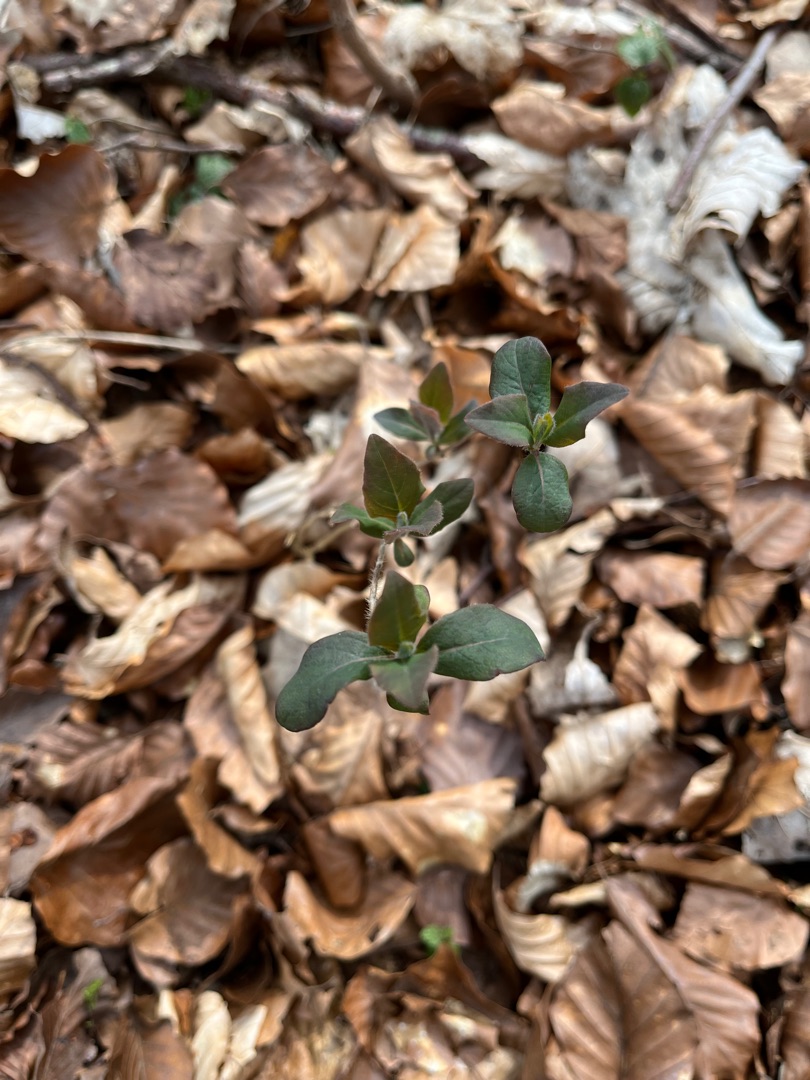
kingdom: Plantae
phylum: Tracheophyta
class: Magnoliopsida
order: Dipsacales
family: Caprifoliaceae
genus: Lonicera
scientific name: Lonicera periclymenum
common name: Almindelig gedeblad
